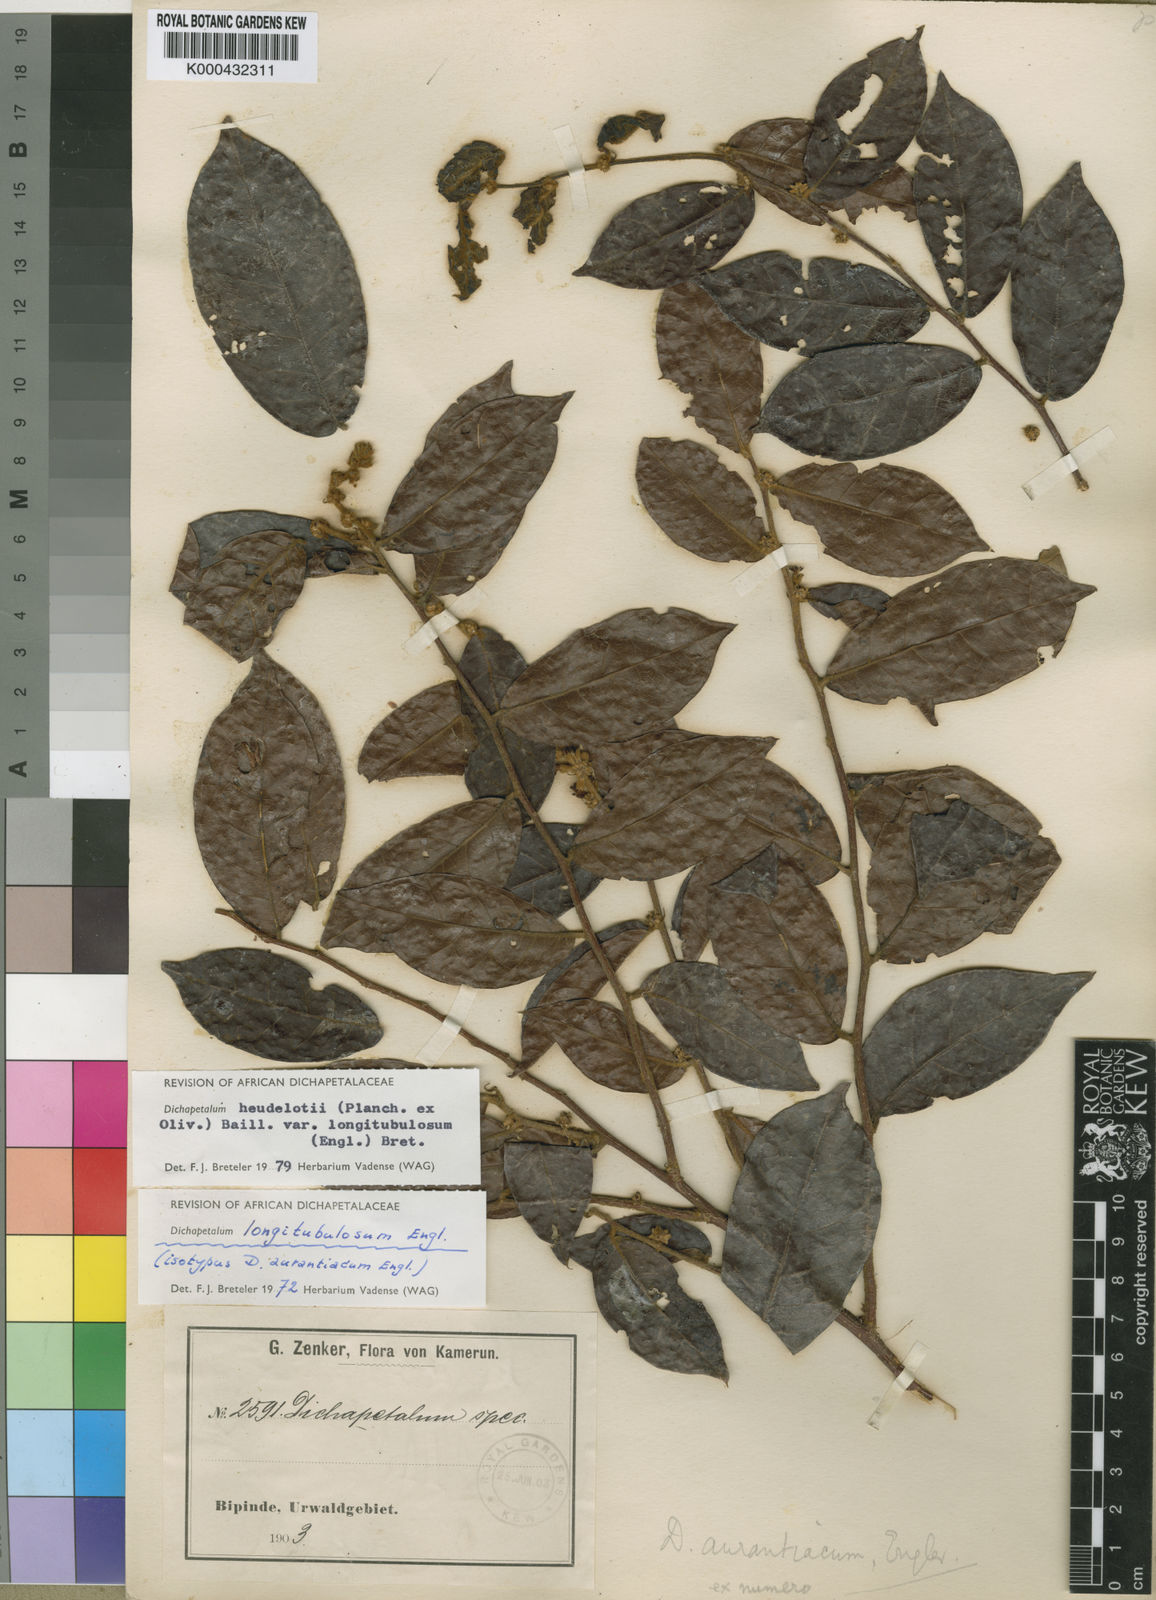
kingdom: Plantae
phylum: Tracheophyta
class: Magnoliopsida
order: Malpighiales
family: Dichapetalaceae
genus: Dichapetalum
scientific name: Dichapetalum heudelotii
